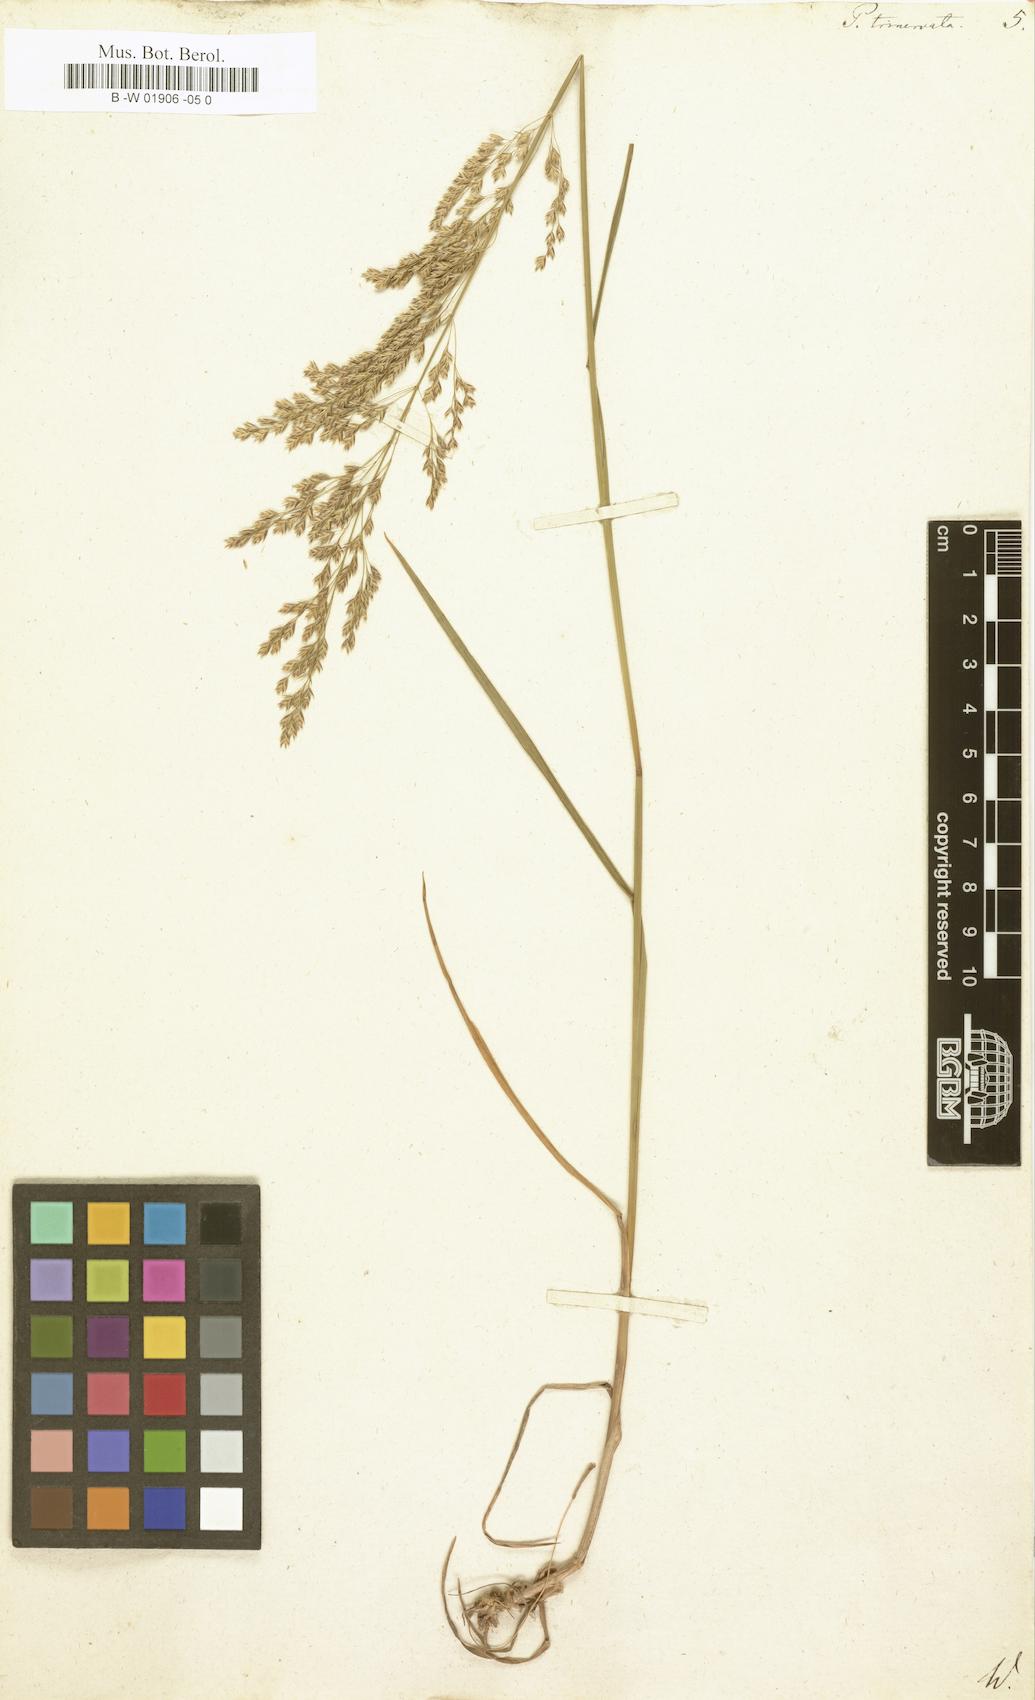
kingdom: Plantae
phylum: Tracheophyta
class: Liliopsida
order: Poales
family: Poaceae
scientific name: Poaceae
